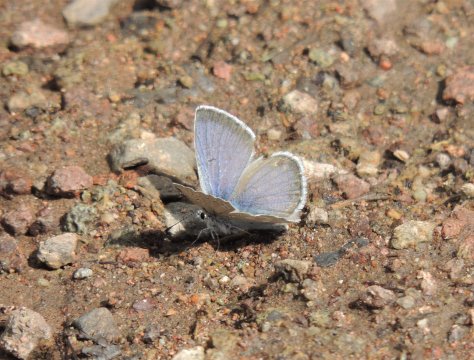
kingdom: Animalia
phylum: Arthropoda
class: Insecta
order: Lepidoptera
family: Lycaenidae
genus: Icaricia
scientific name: Icaricia icarioides
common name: Boisduval's Blue
